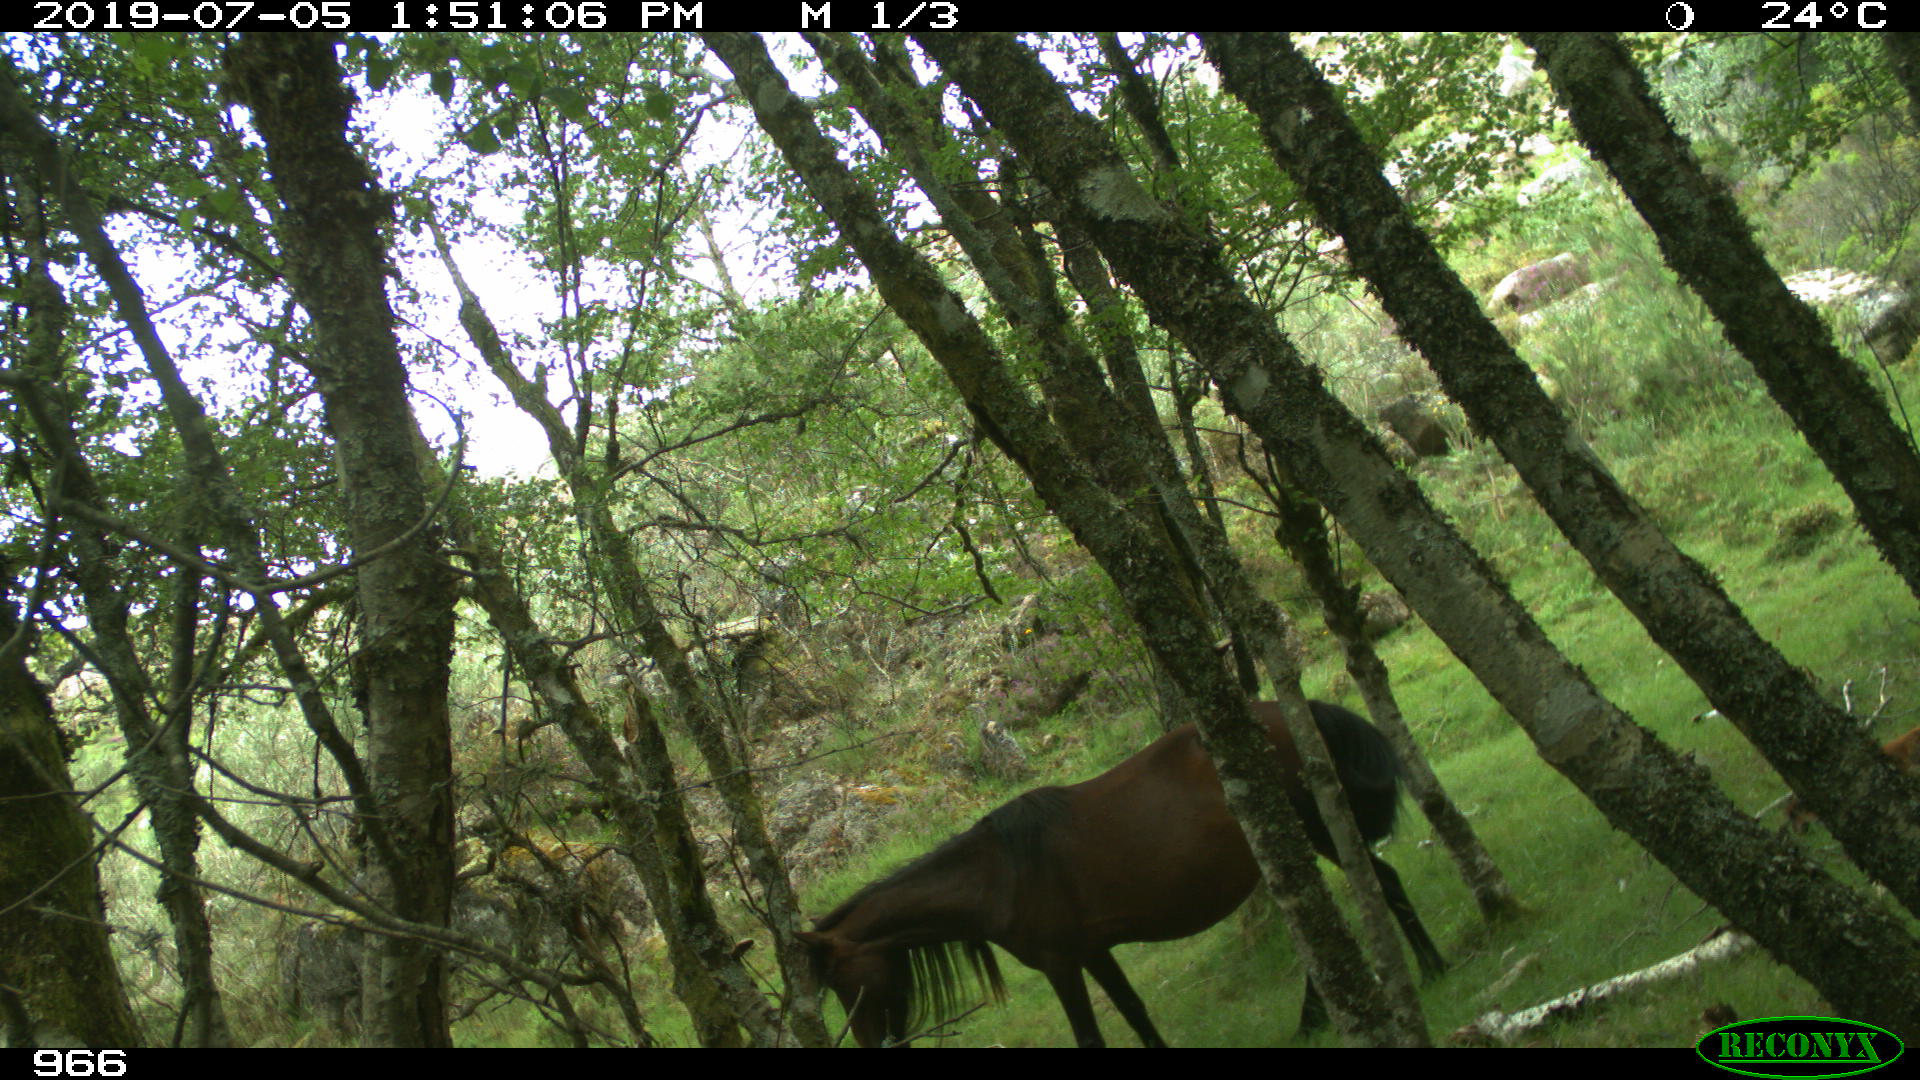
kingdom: Animalia
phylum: Chordata
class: Mammalia
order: Perissodactyla
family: Equidae
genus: Equus
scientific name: Equus caballus
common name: Horse
